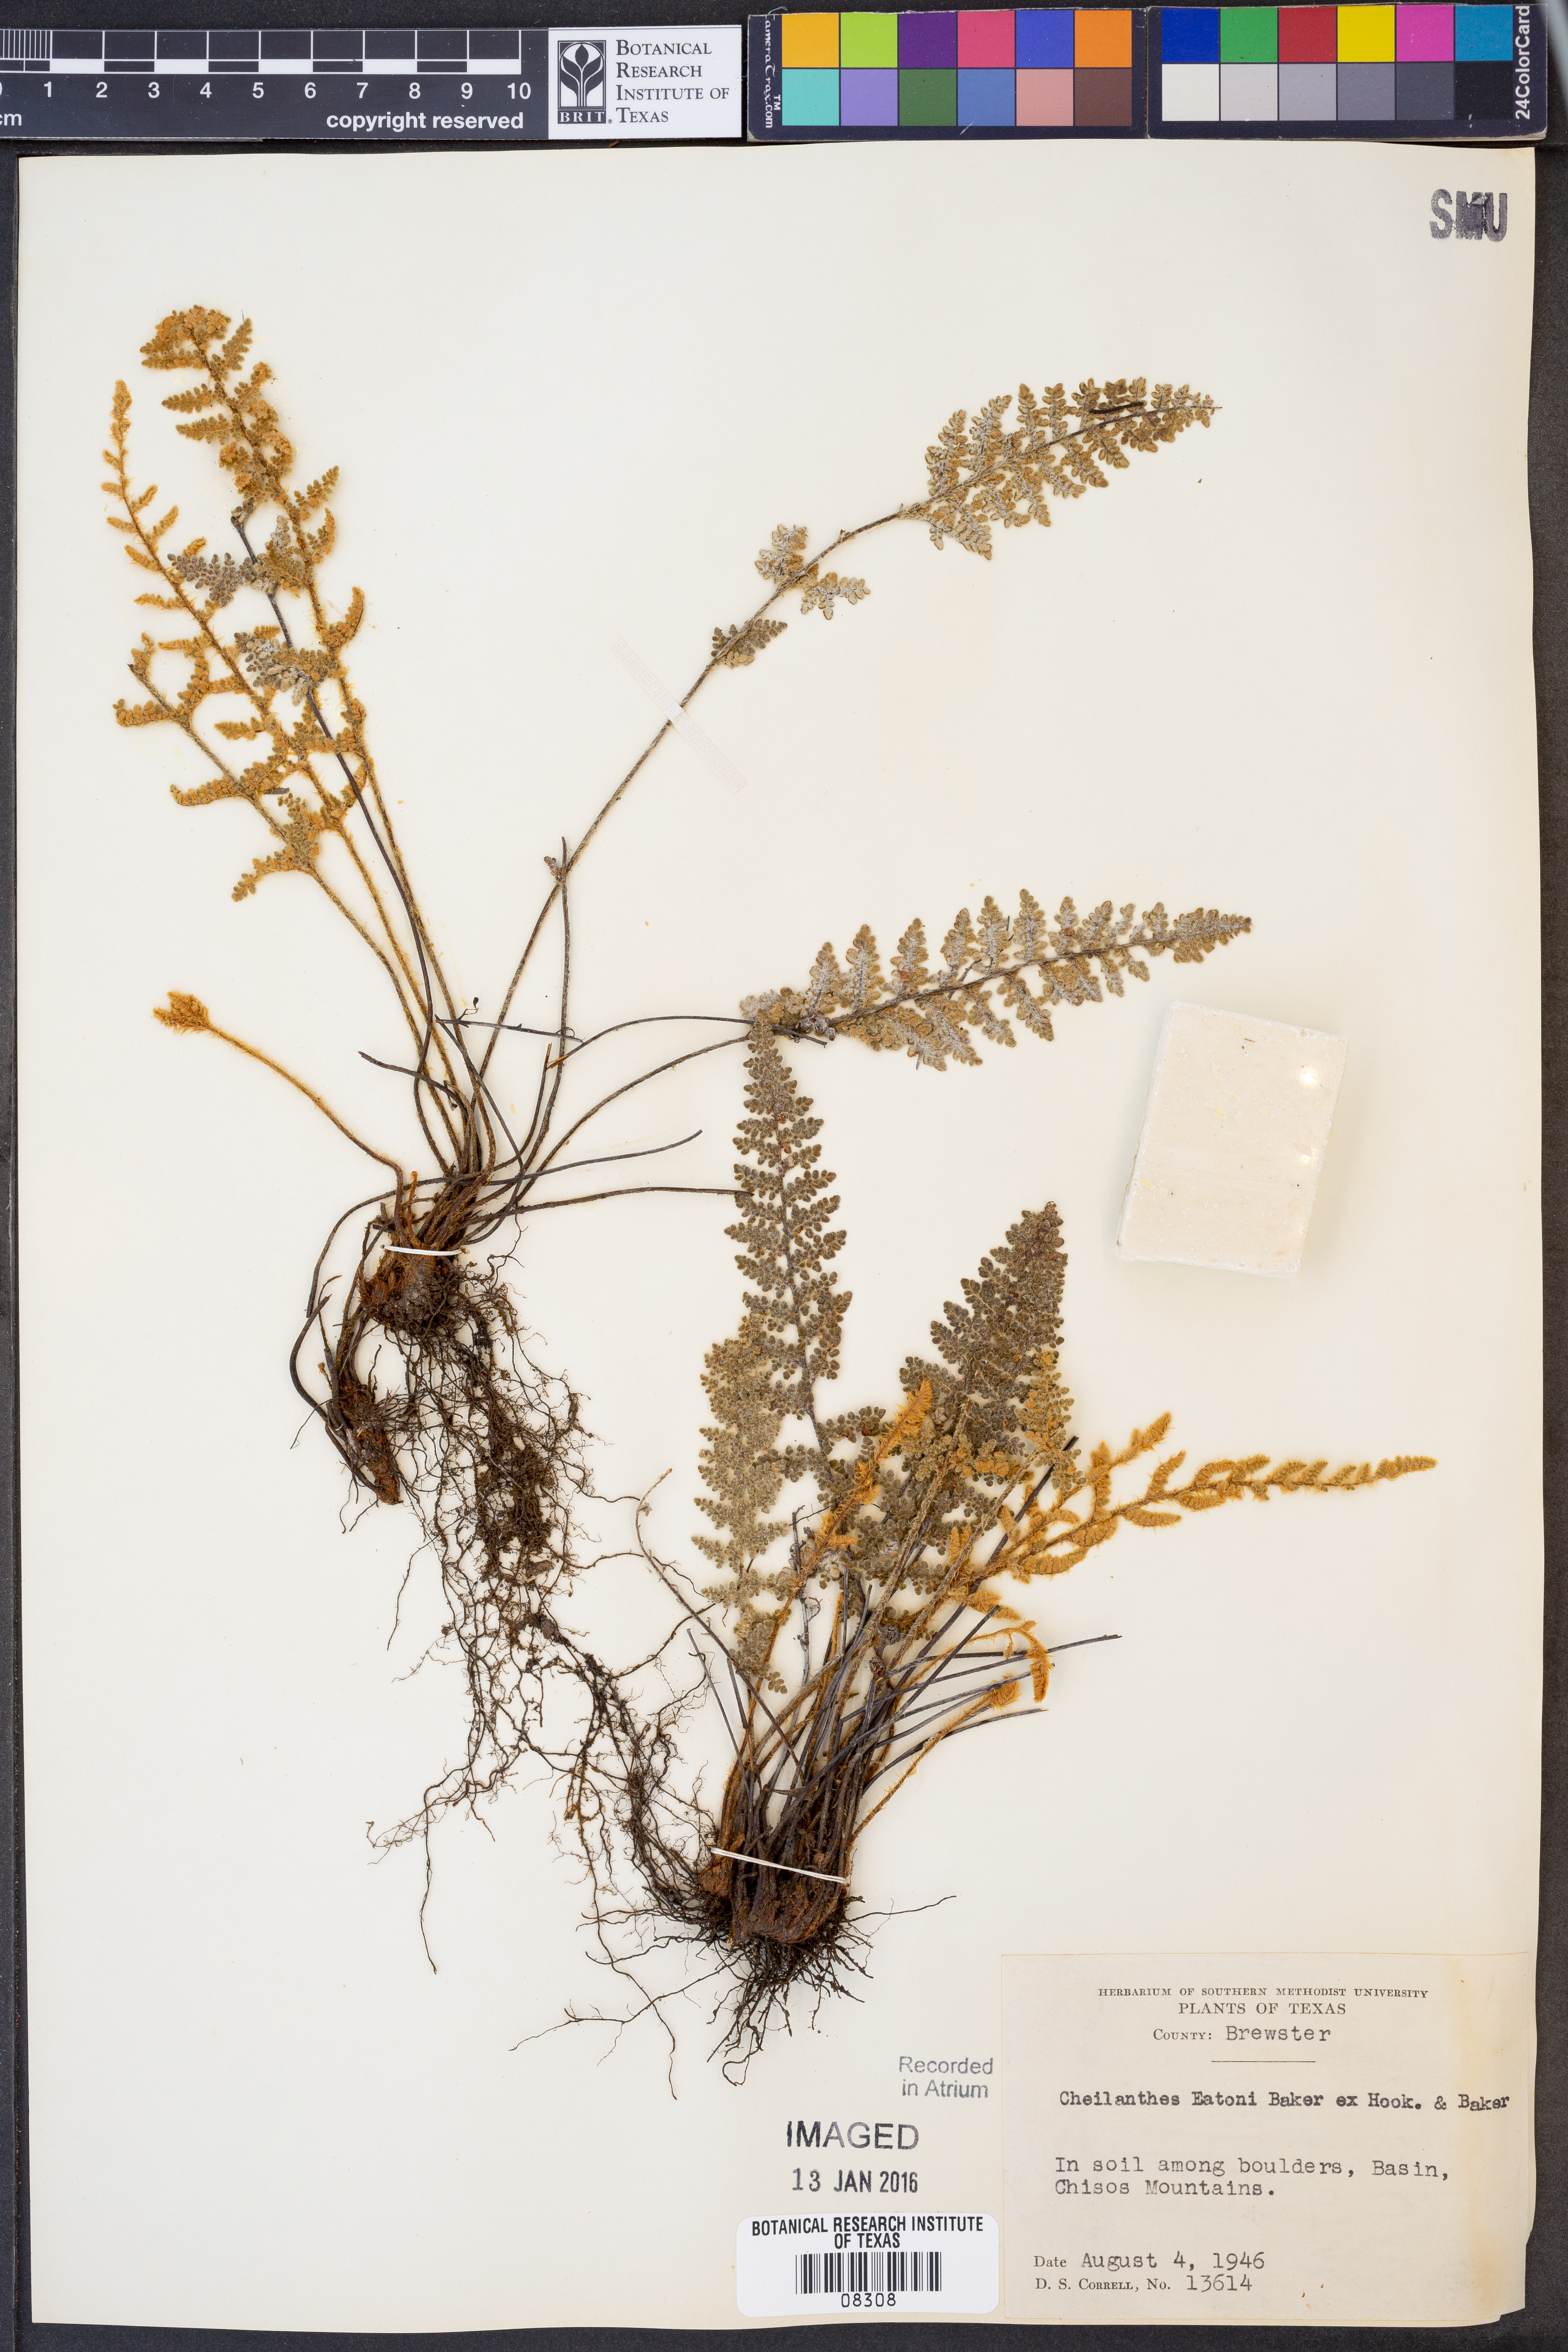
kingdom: Plantae
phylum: Tracheophyta
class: Polypodiopsida
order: Polypodiales
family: Pteridaceae
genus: Myriopteris
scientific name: Myriopteris rufa
